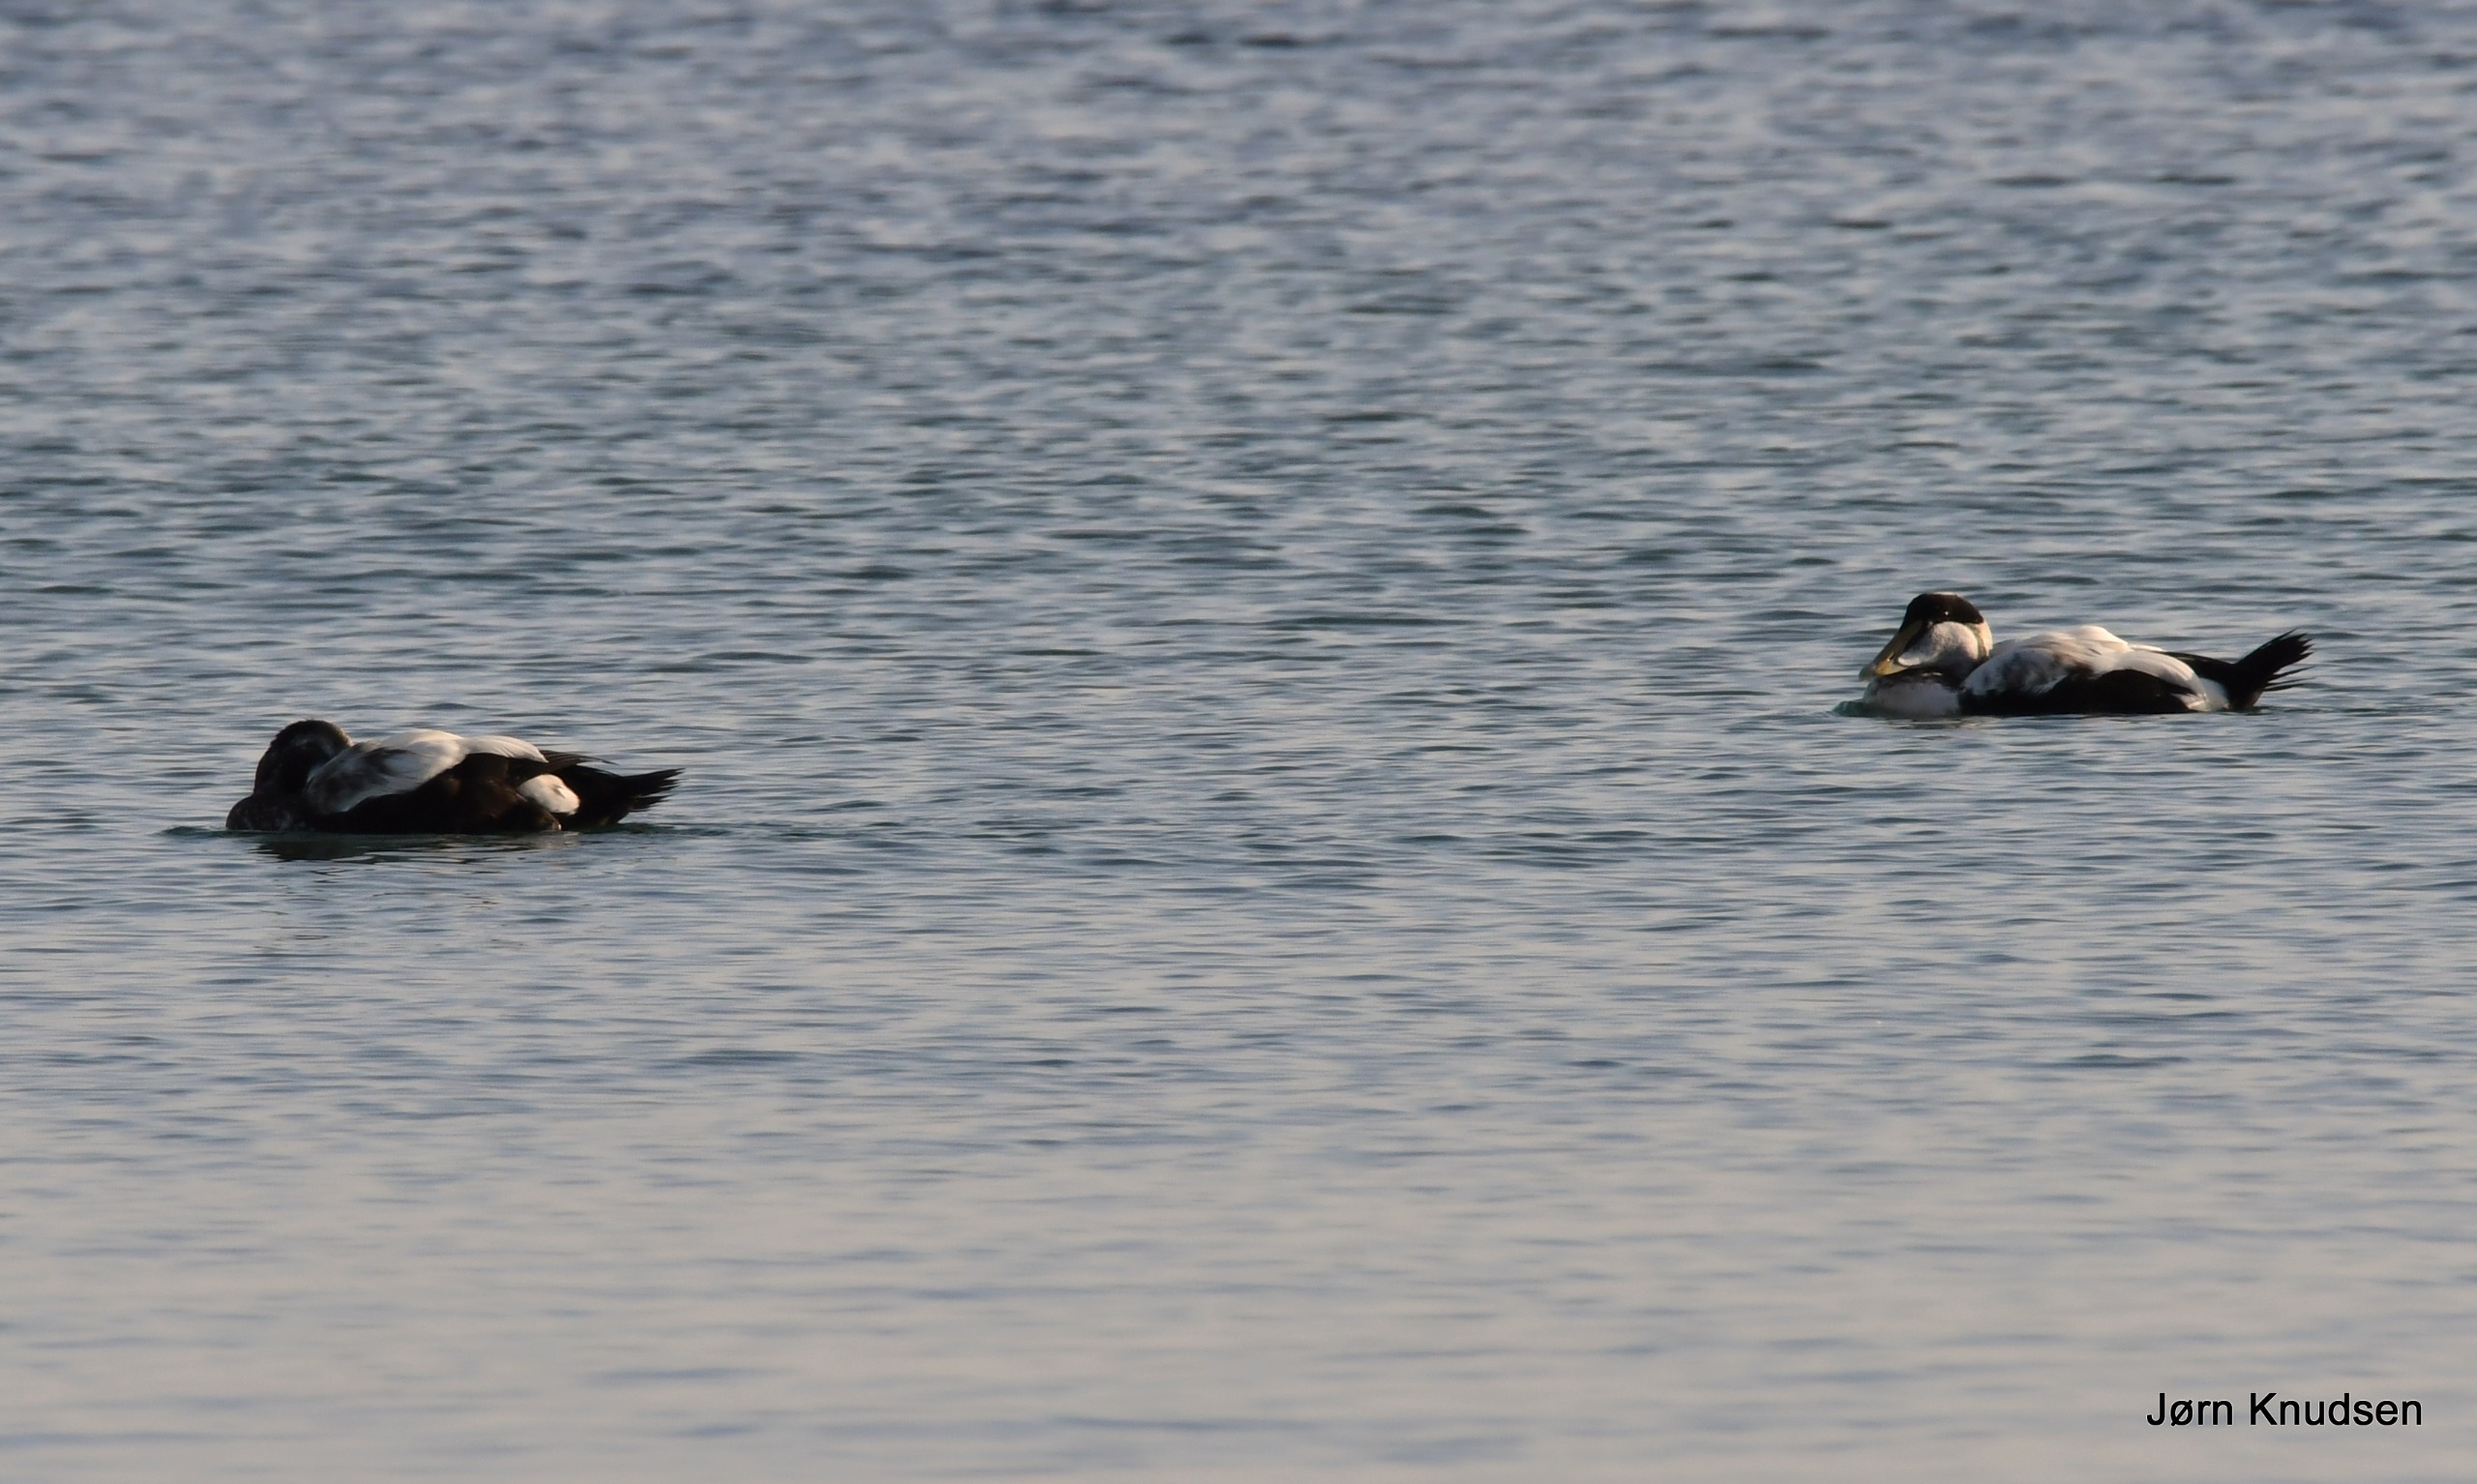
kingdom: Animalia
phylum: Chordata
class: Aves
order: Anseriformes
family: Anatidae
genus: Somateria
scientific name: Somateria mollissima
